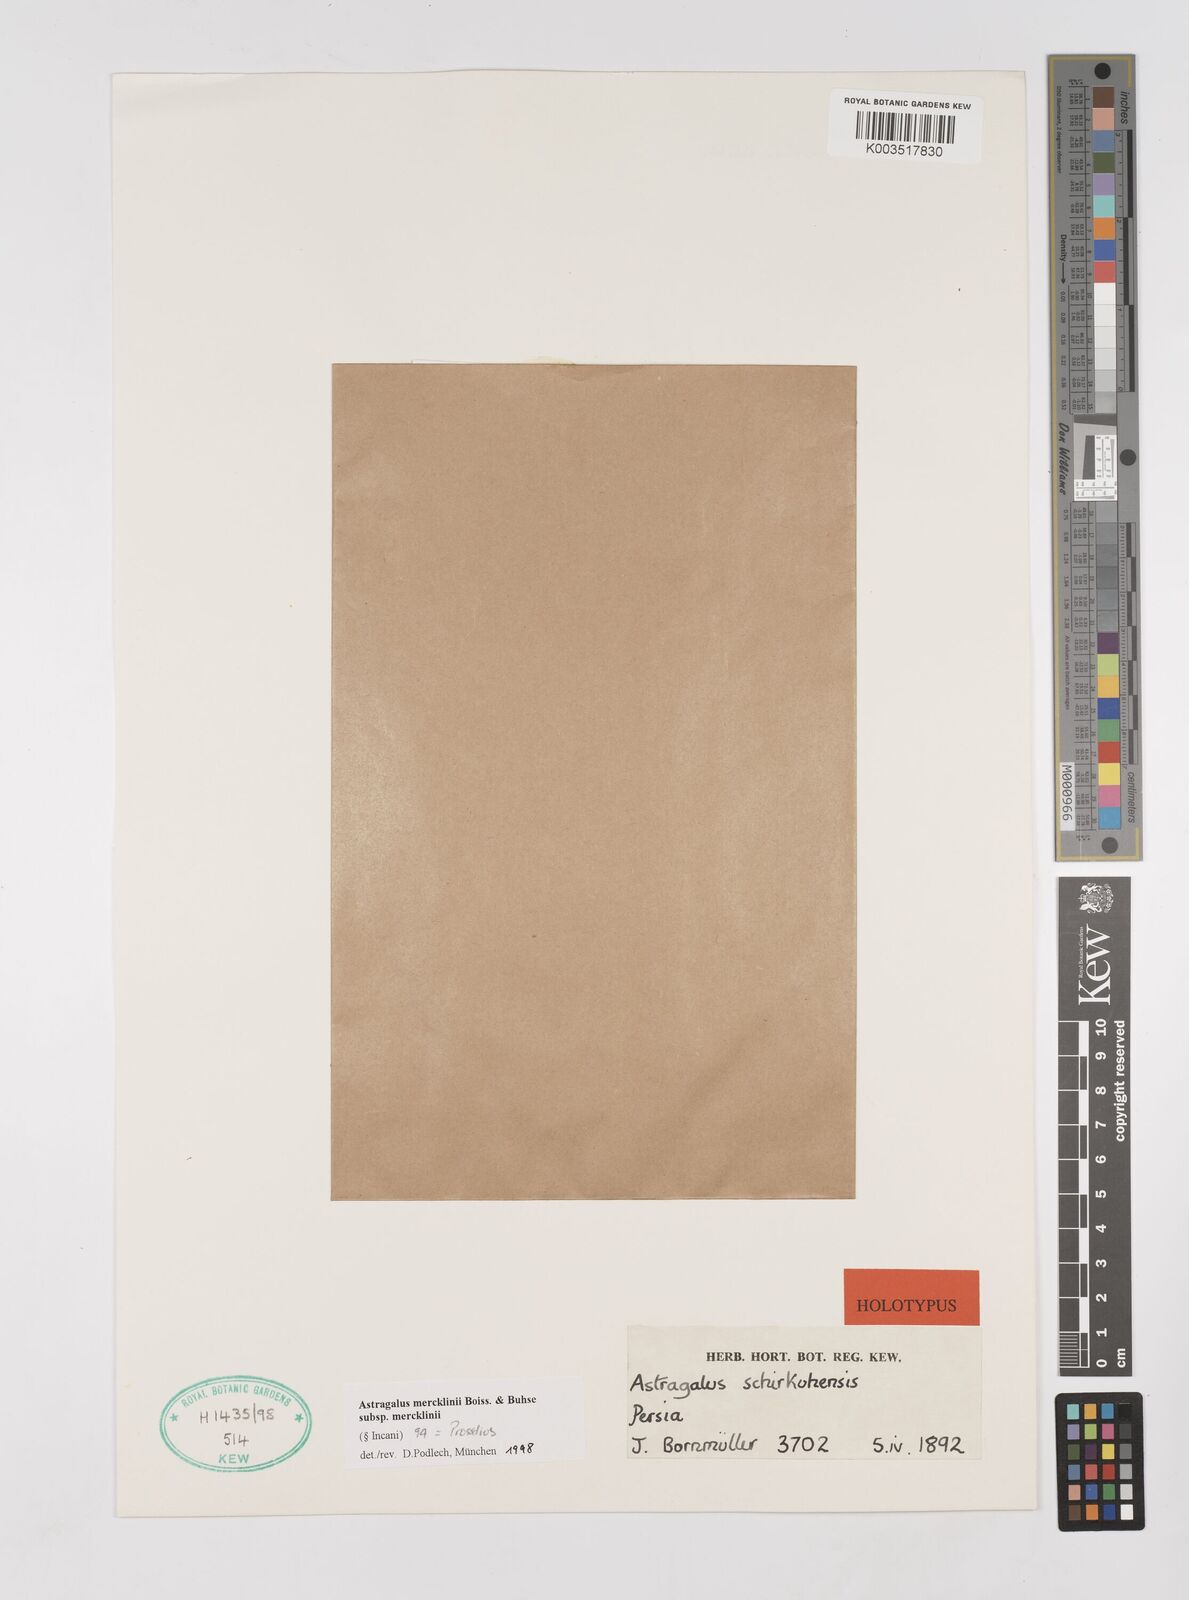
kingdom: Plantae
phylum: Tracheophyta
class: Magnoliopsida
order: Fabales
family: Fabaceae
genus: Astragalus
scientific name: Astragalus mercklinii
